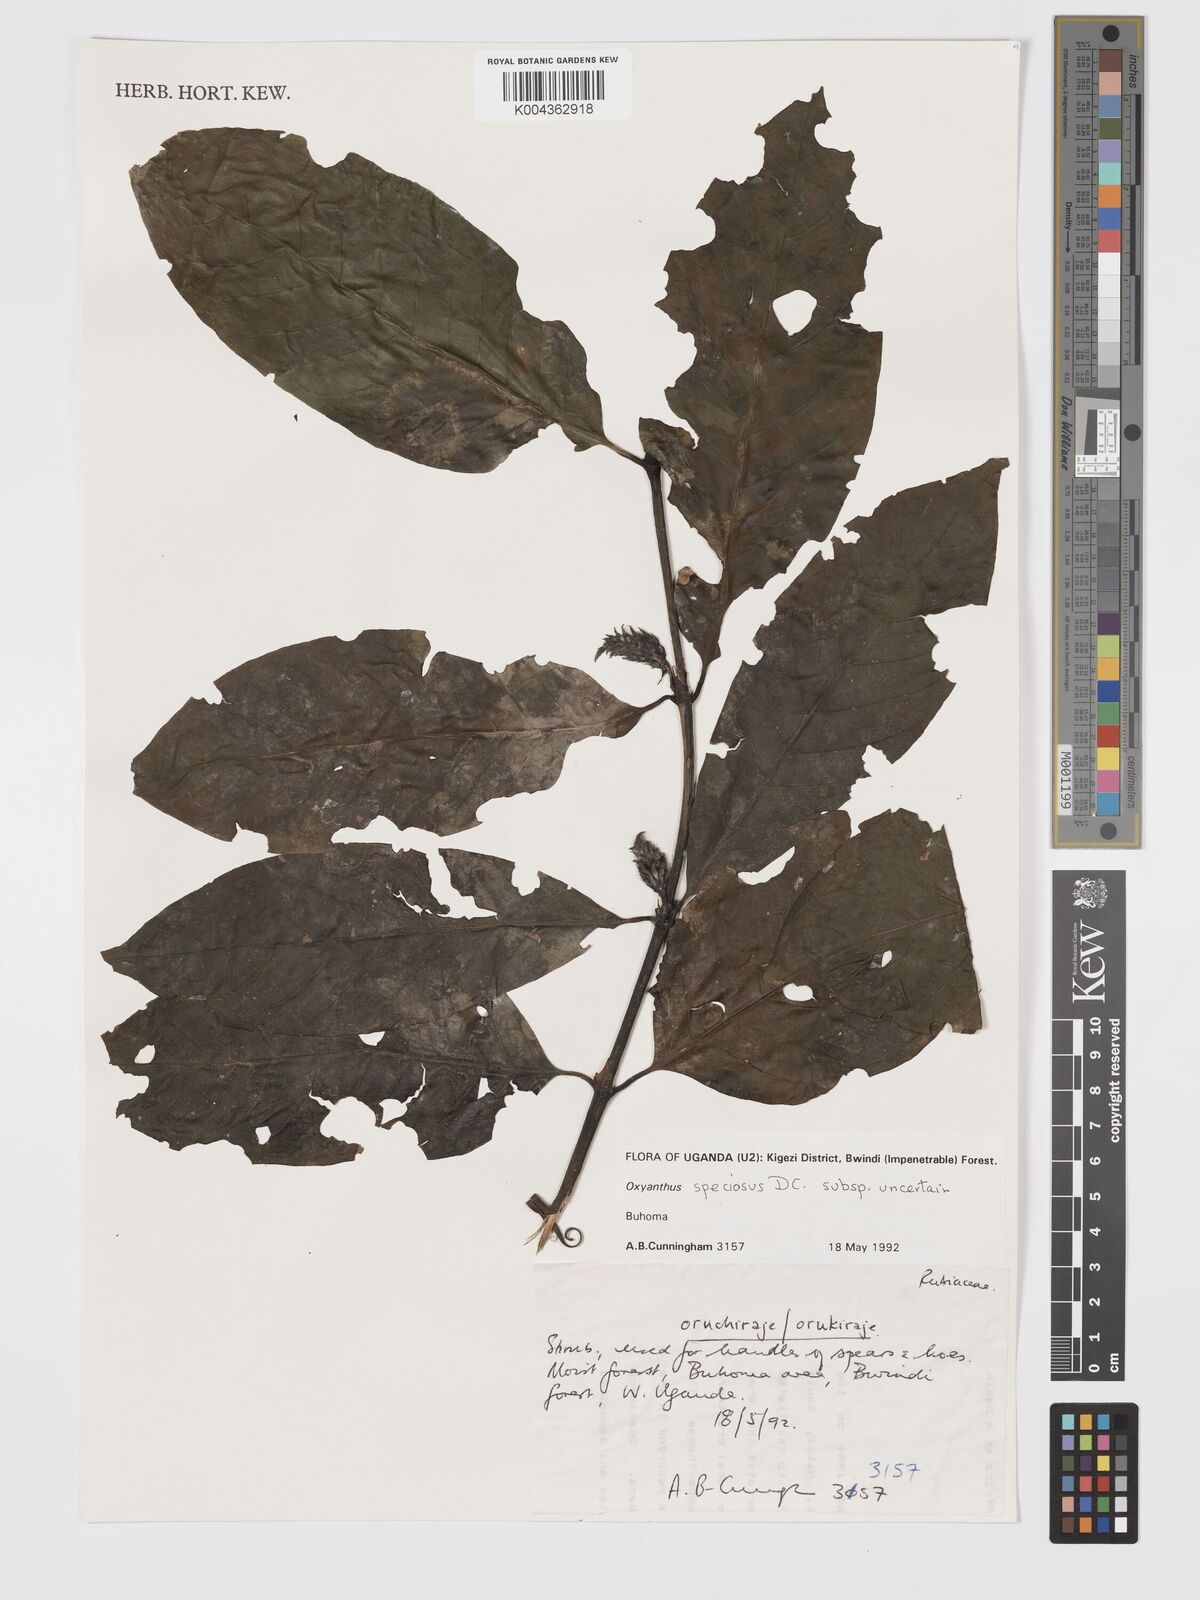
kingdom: Plantae
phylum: Tracheophyta
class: Magnoliopsida
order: Gentianales
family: Rubiaceae
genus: Oxyanthus
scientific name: Oxyanthus
